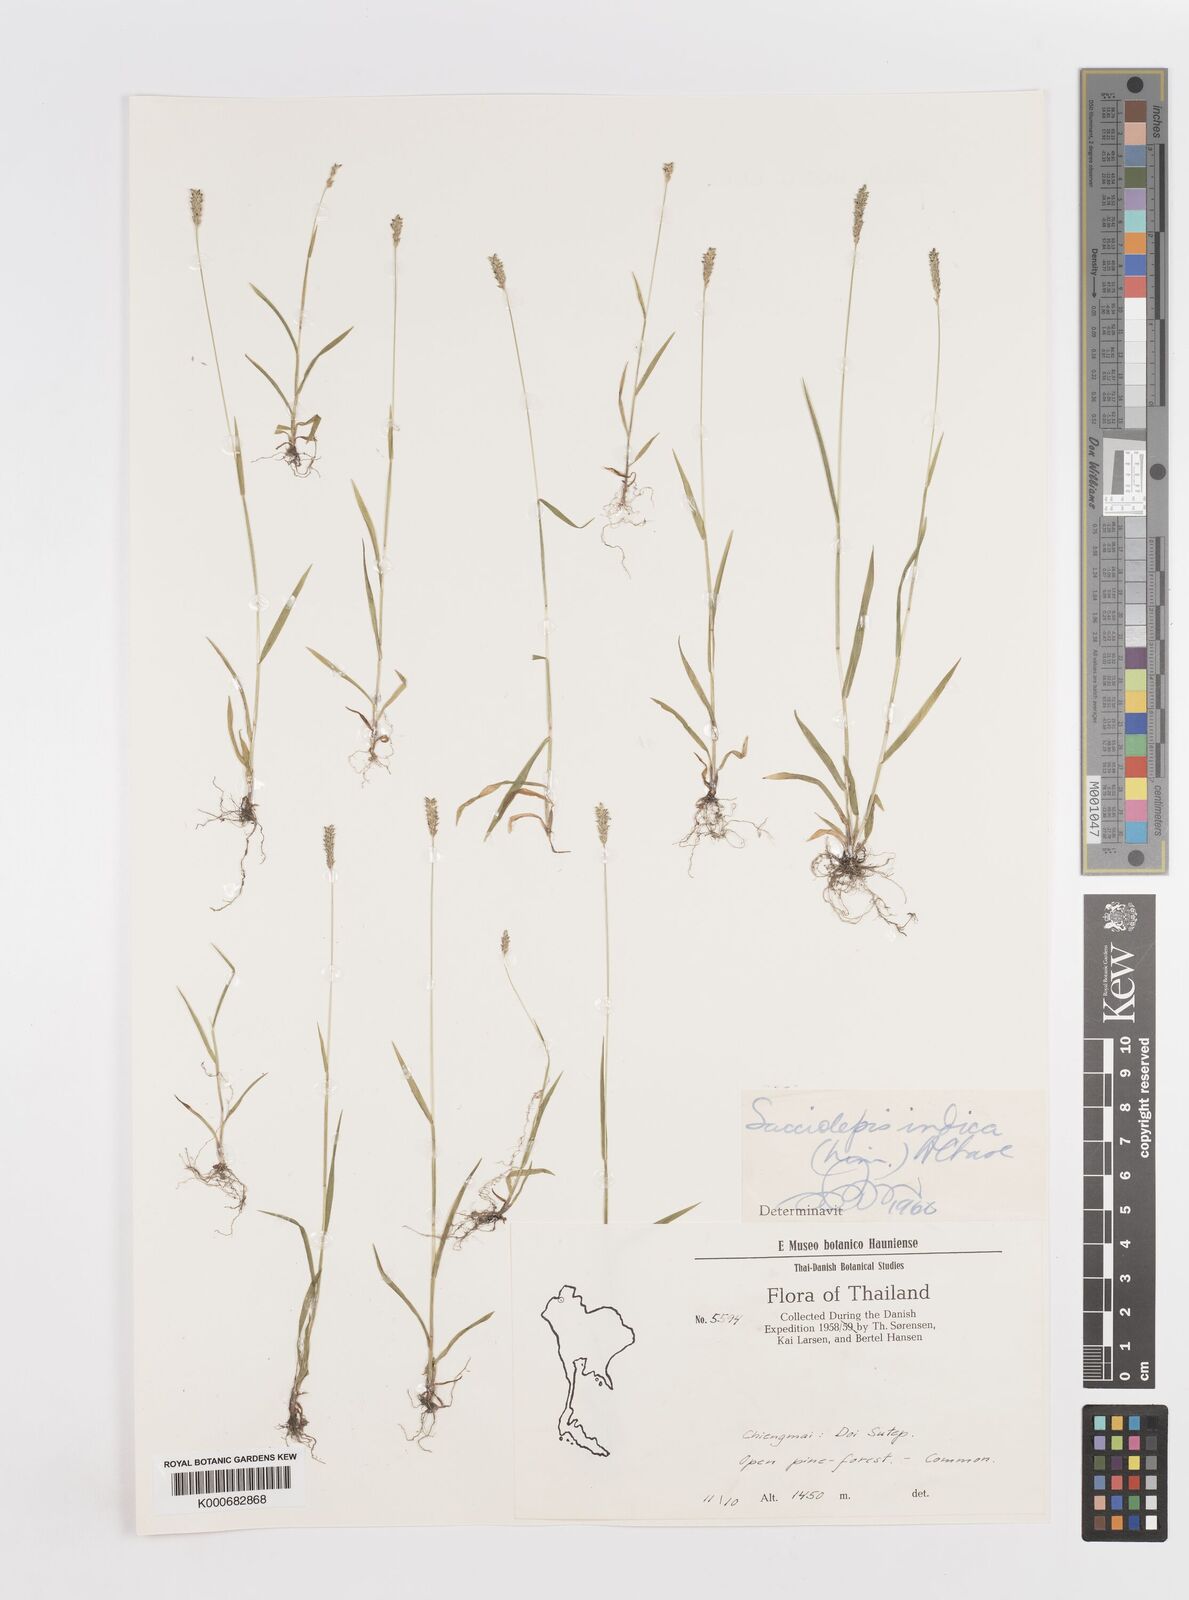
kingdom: Plantae
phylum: Tracheophyta
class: Liliopsida
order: Poales
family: Poaceae
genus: Sacciolepis
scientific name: Sacciolepis indica
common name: Glenwoodgrass
